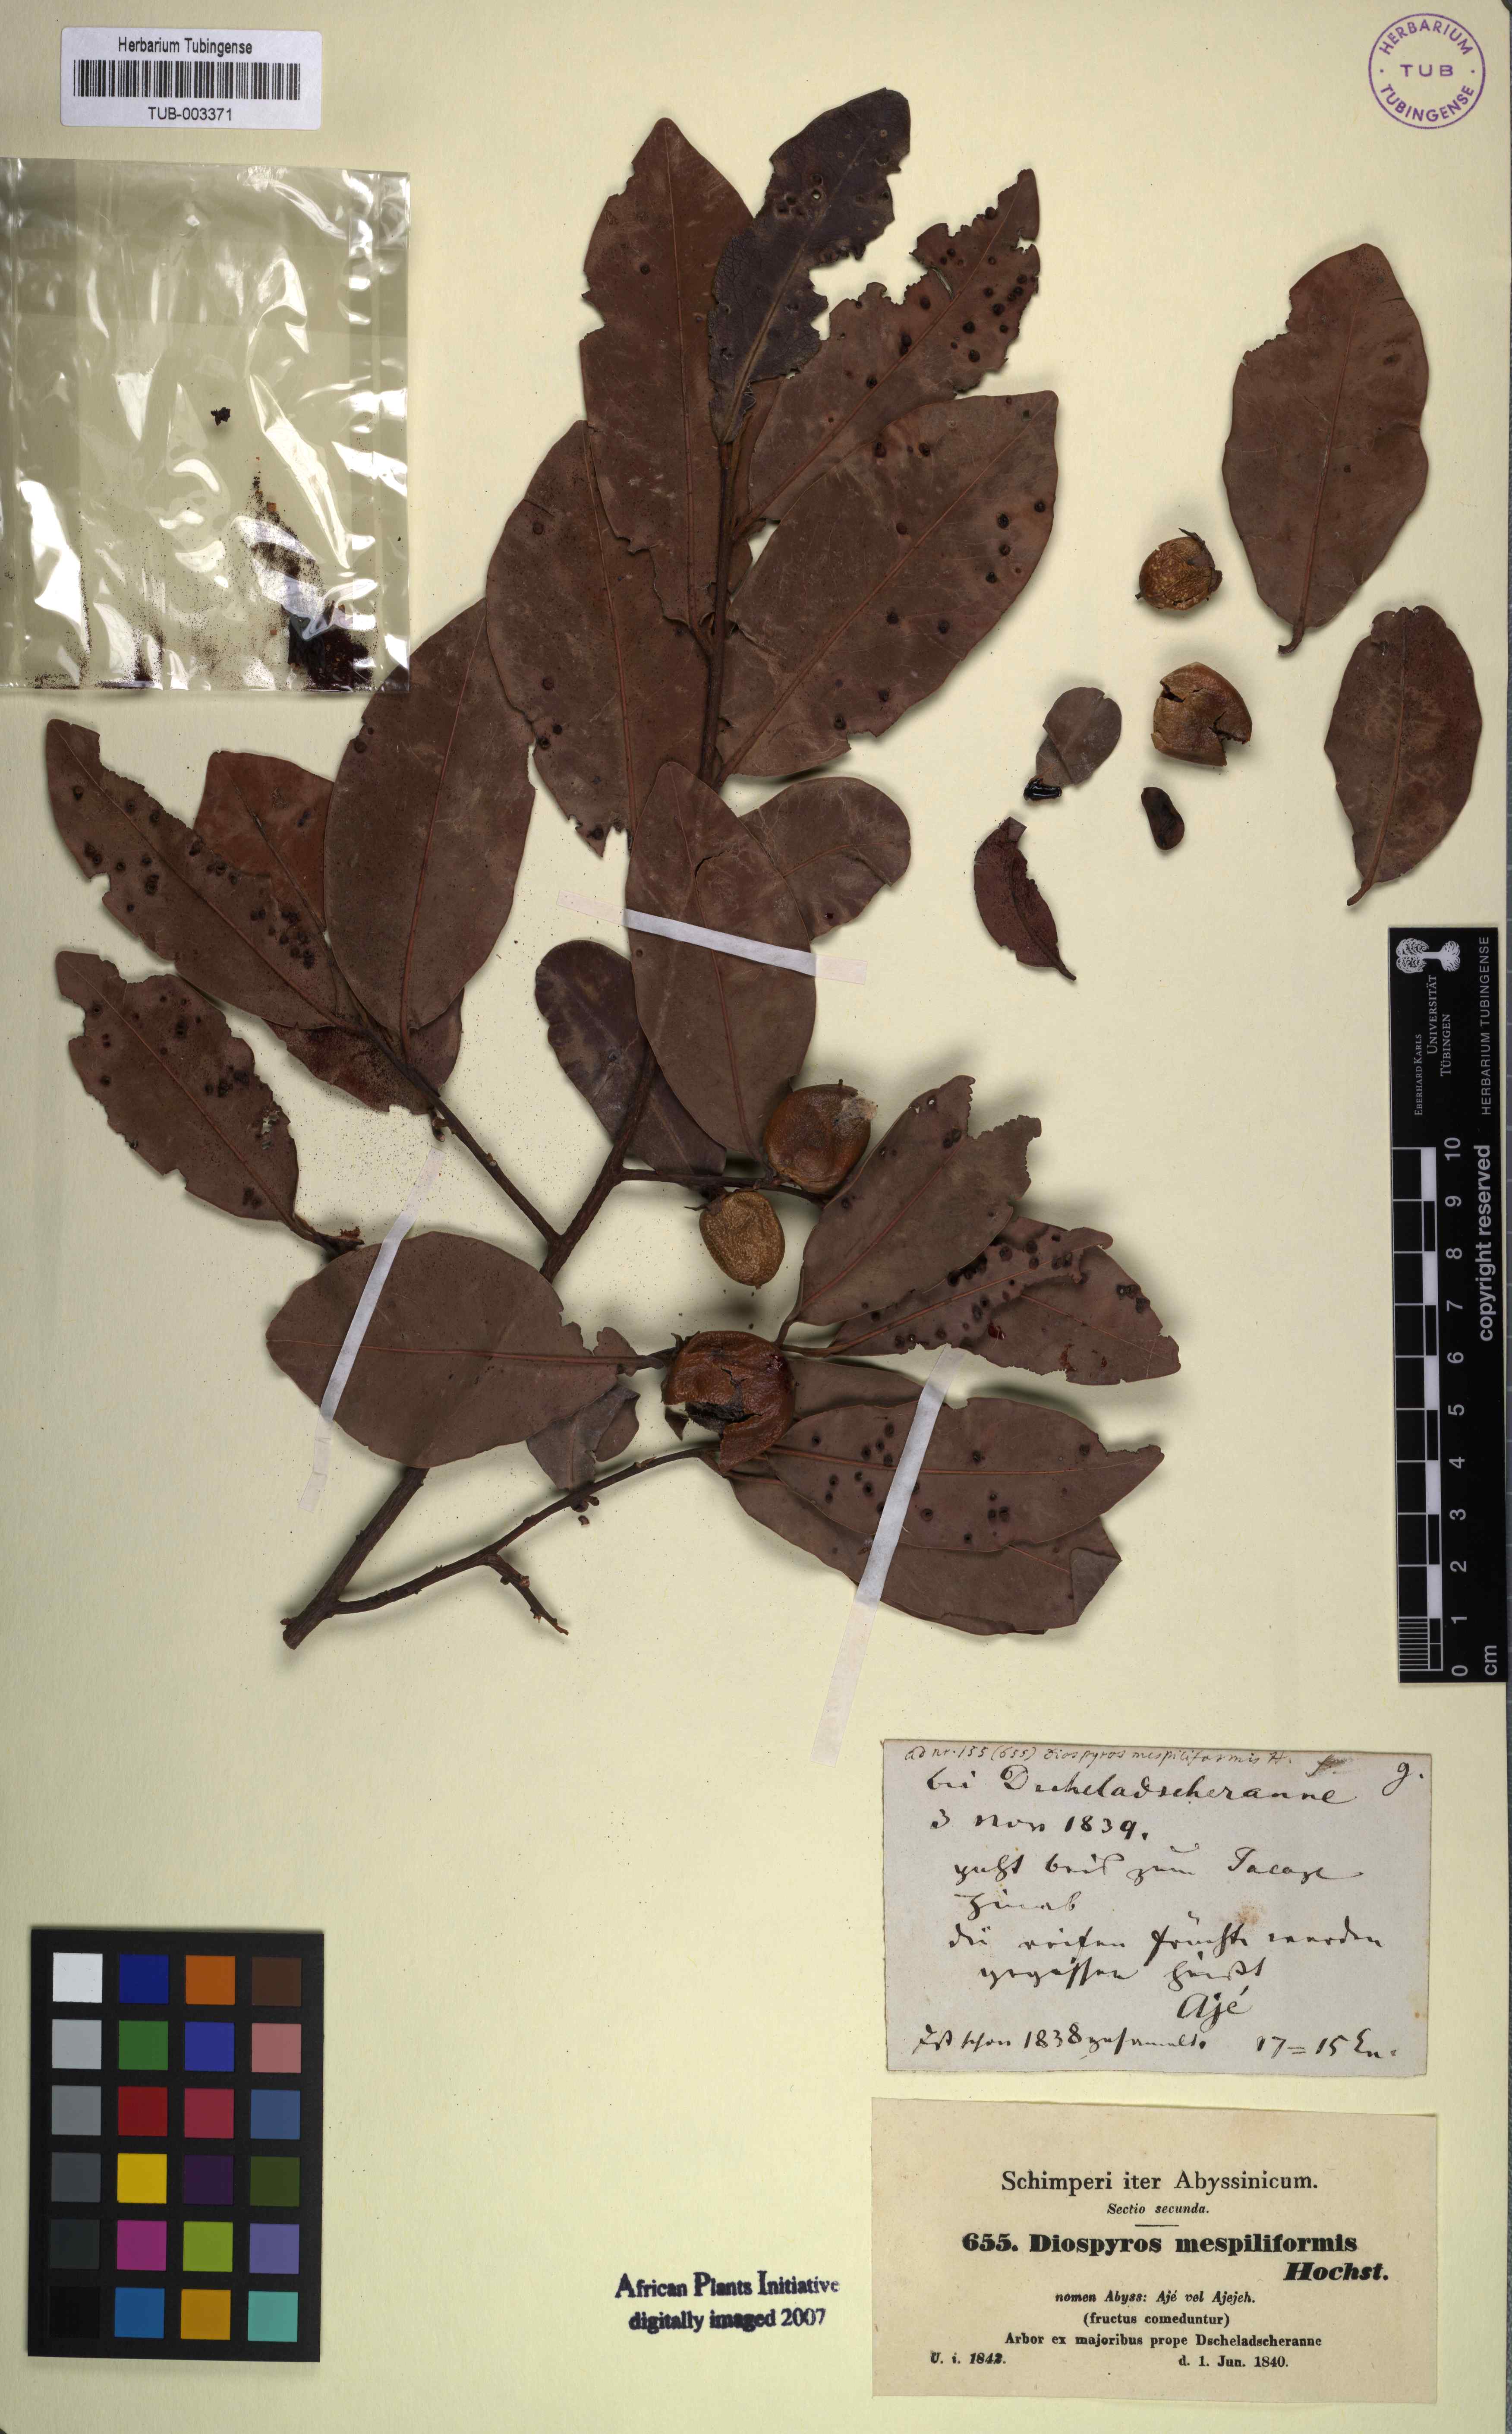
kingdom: Plantae
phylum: Tracheophyta
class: Magnoliopsida
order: Ericales
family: Ebenaceae
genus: Diospyros
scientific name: Diospyros mespiliformis
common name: Ebony diospyros
